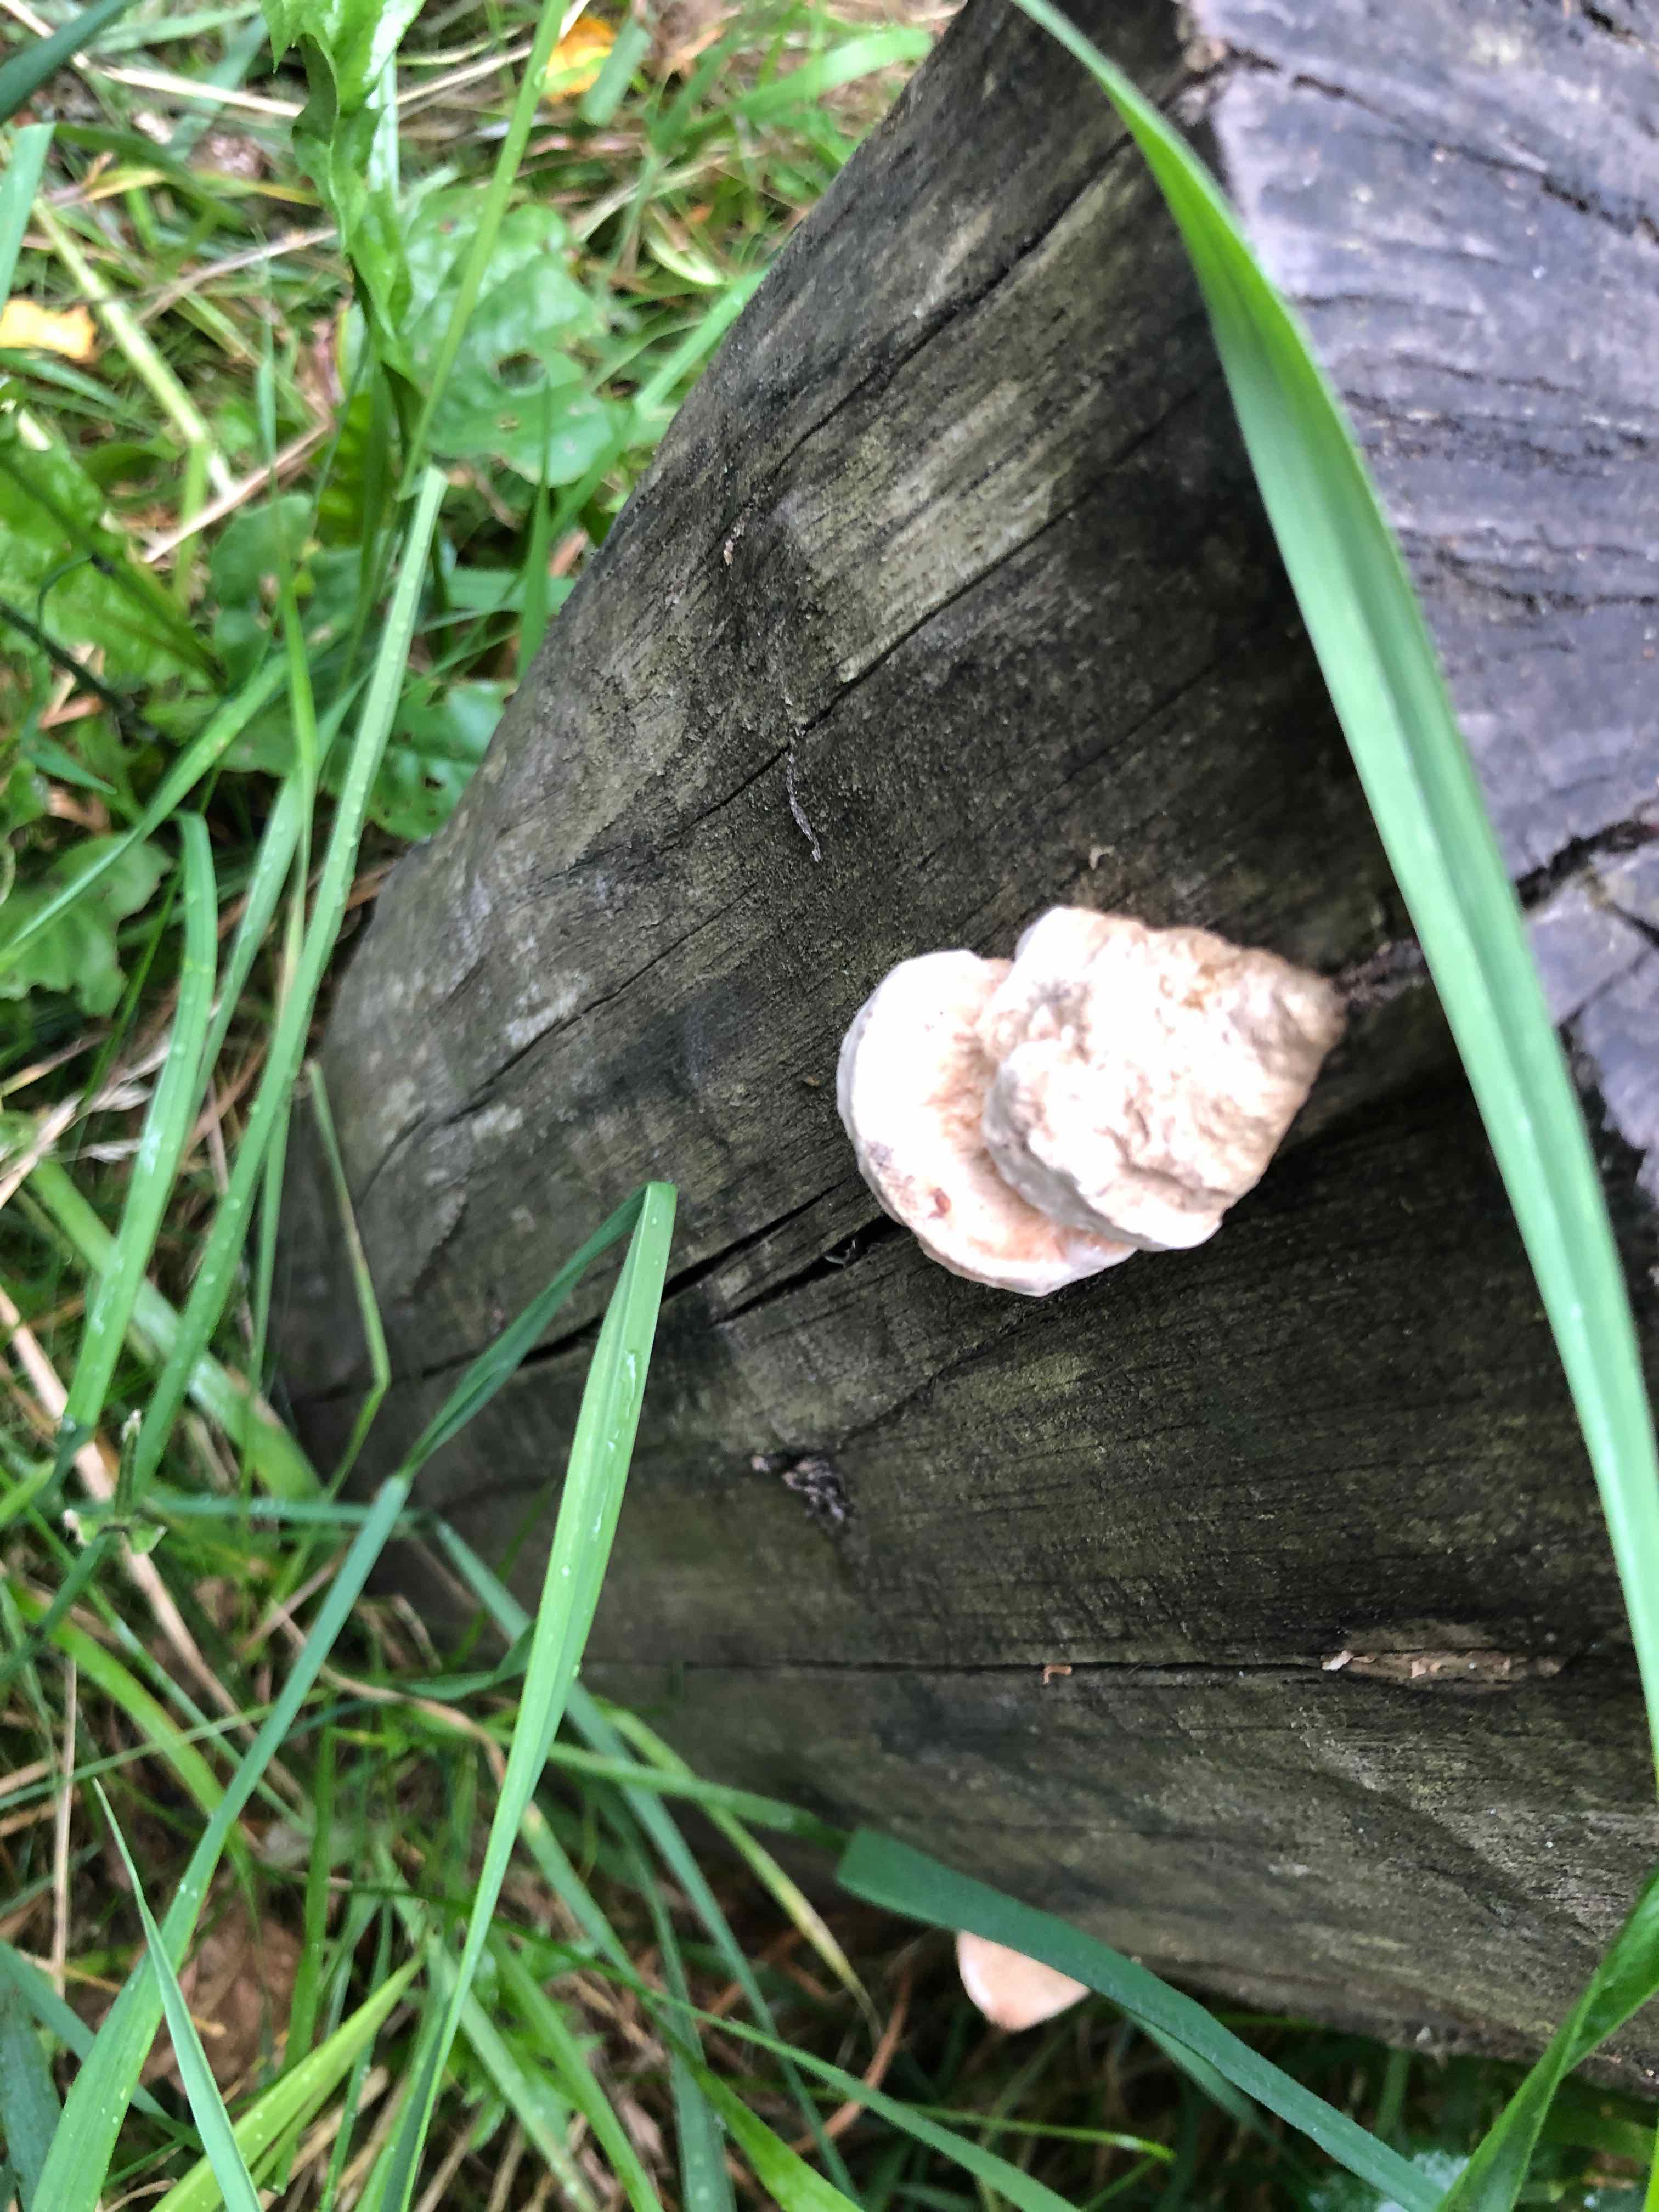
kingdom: Fungi
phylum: Basidiomycota
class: Agaricomycetes
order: Polyporales
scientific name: Polyporales
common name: poresvampordenen
